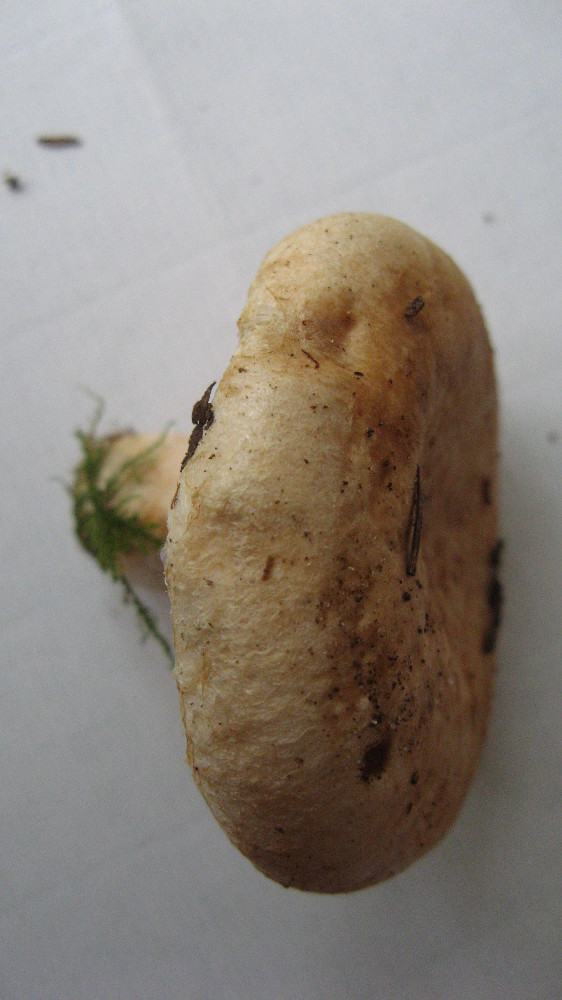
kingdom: Fungi
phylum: Basidiomycota
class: Agaricomycetes
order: Russulales
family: Russulaceae
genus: Lactarius
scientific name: Lactarius pubescens
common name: dunet mælkehat
